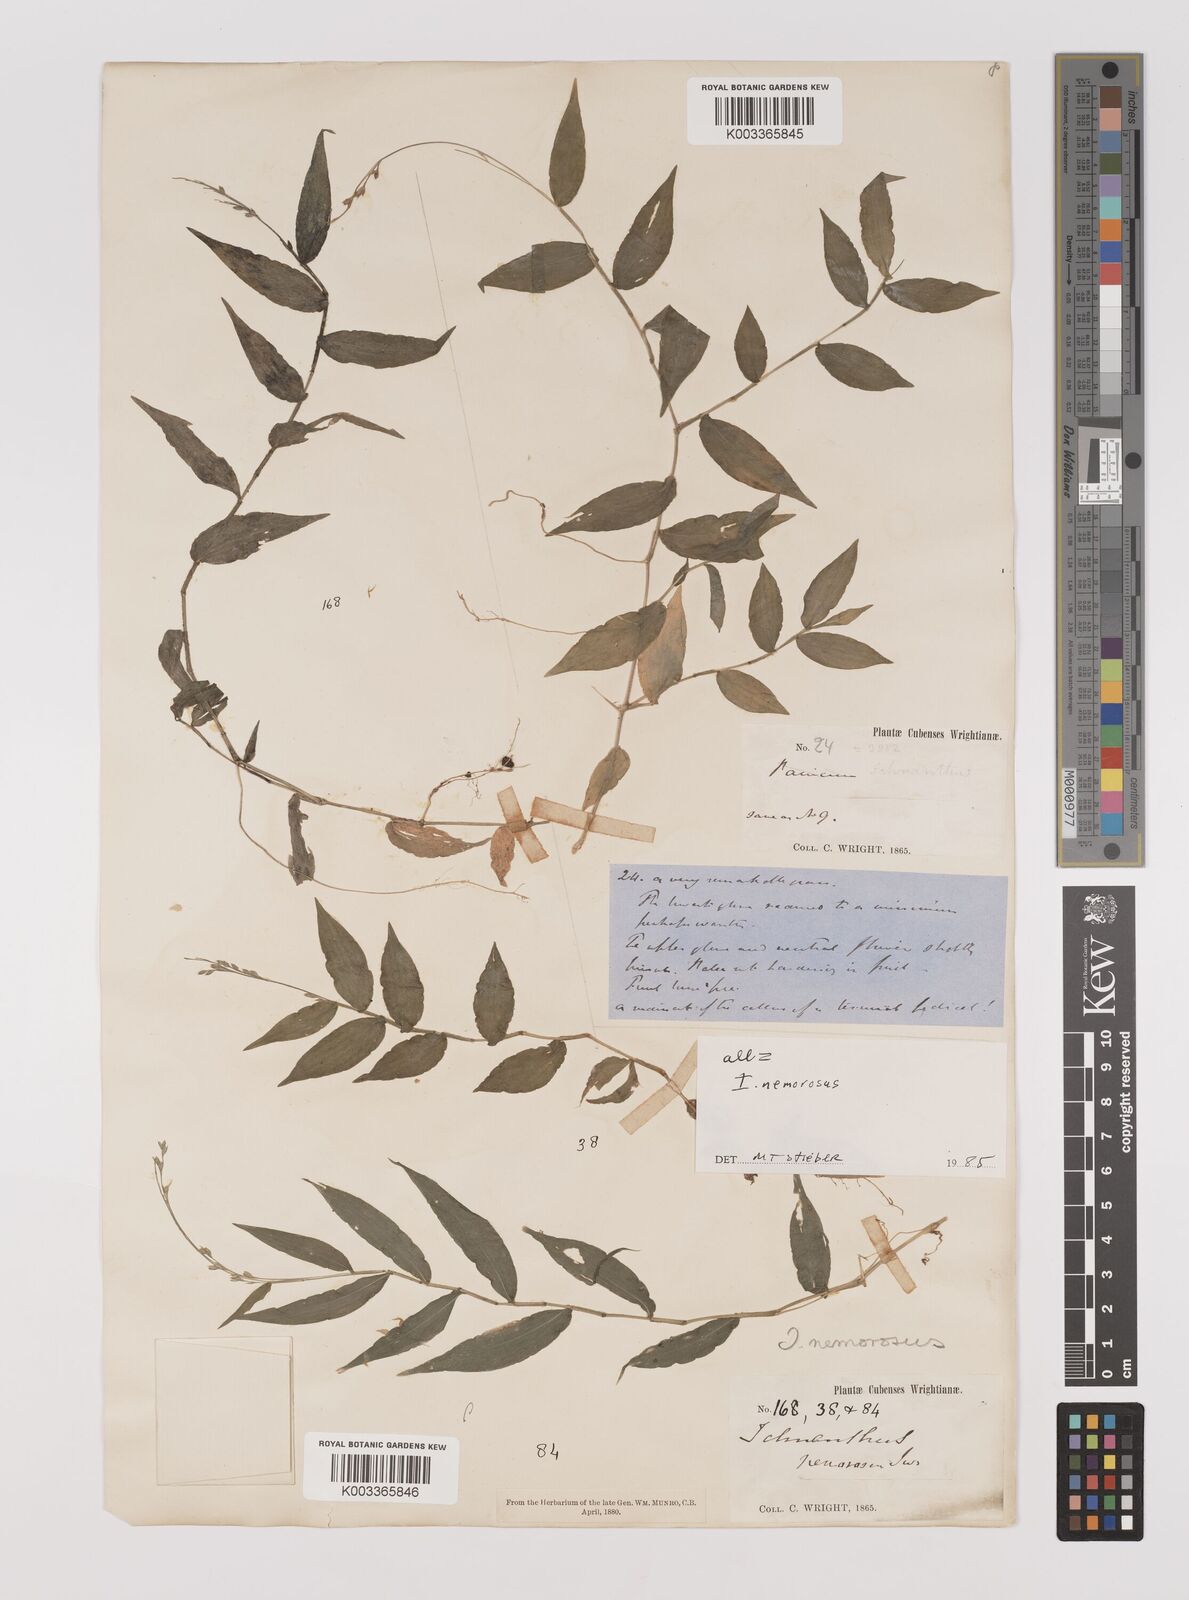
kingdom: Plantae
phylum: Tracheophyta
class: Liliopsida
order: Poales
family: Poaceae
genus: Ichnanthus
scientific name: Ichnanthus nemorosus
